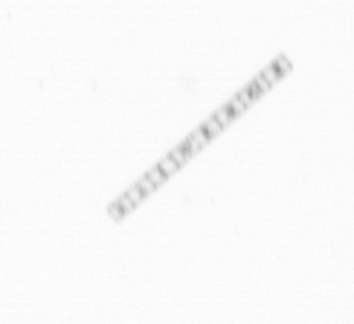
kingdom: Chromista
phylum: Ochrophyta
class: Bacillariophyceae
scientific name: Bacillariophyceae
